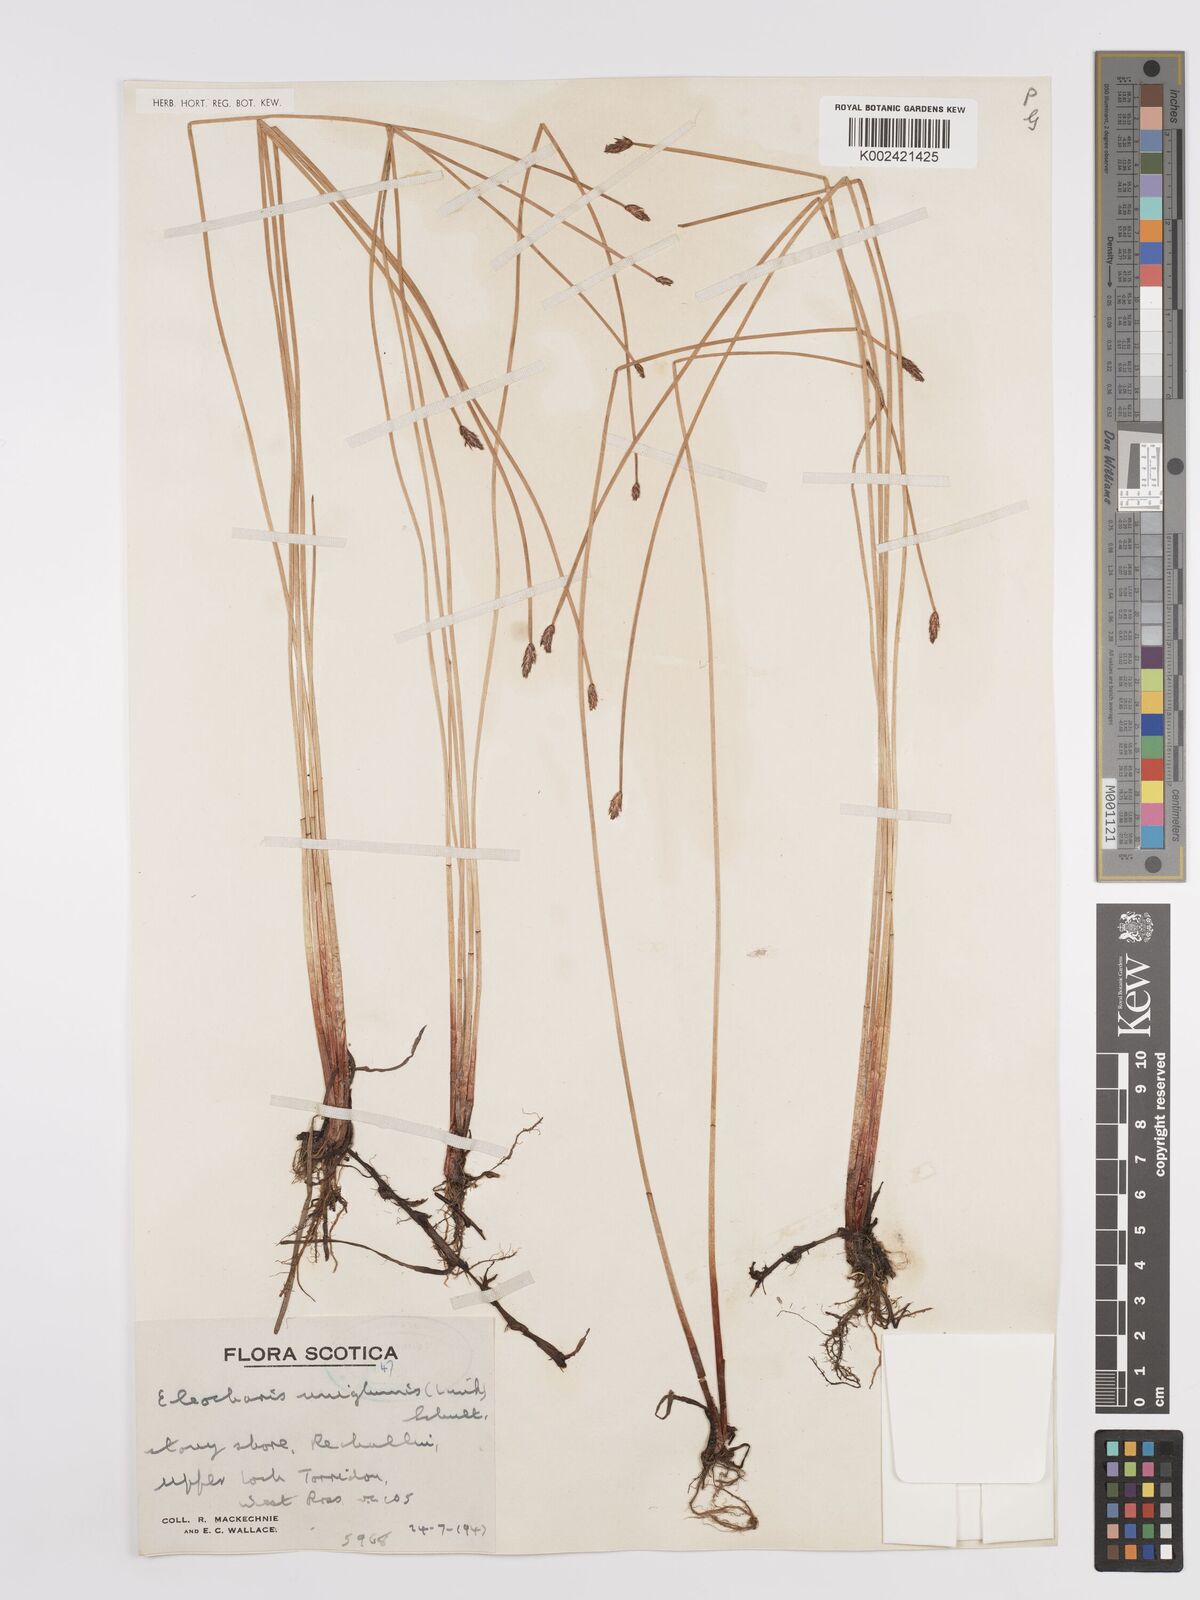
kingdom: Plantae
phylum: Tracheophyta
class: Liliopsida
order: Poales
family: Cyperaceae
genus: Eleocharis
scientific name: Eleocharis uniglumis
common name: Slender spike-rush
